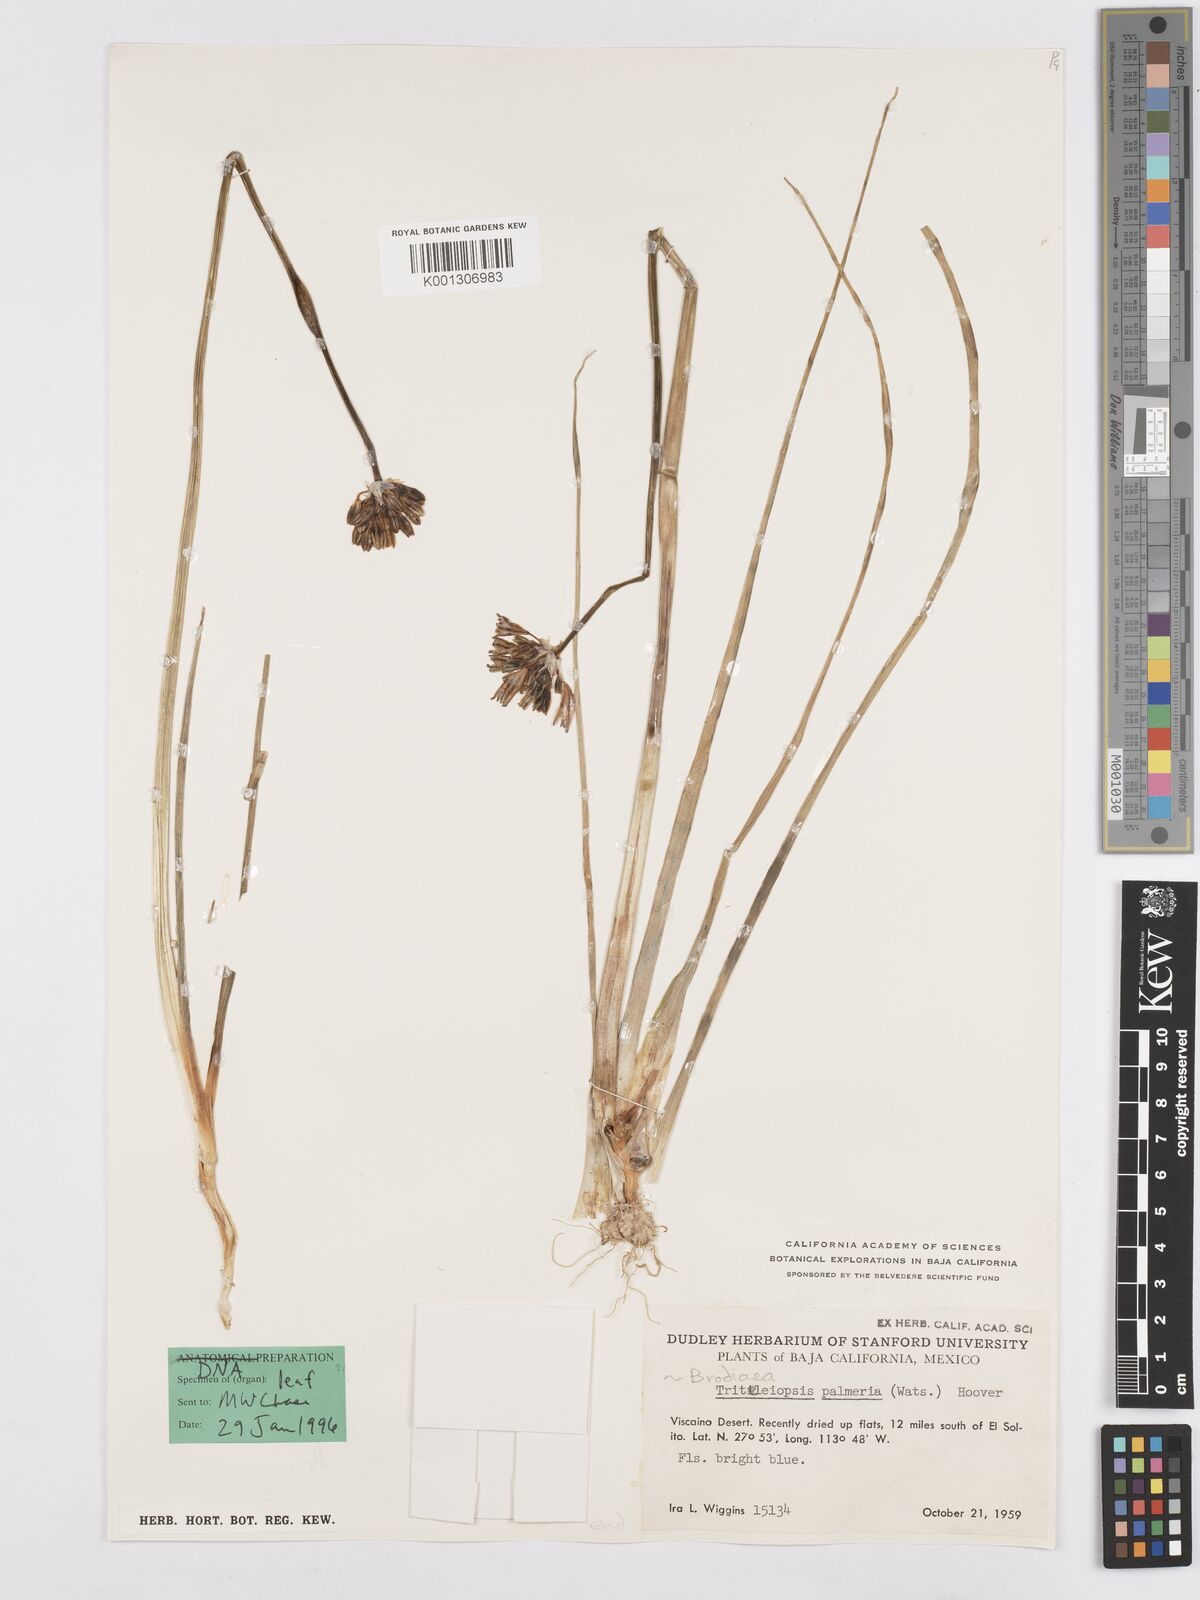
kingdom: Plantae
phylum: Tracheophyta
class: Liliopsida
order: Asparagales
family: Asparagaceae
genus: Triteleiopsis
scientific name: Triteleiopsis palmeri
